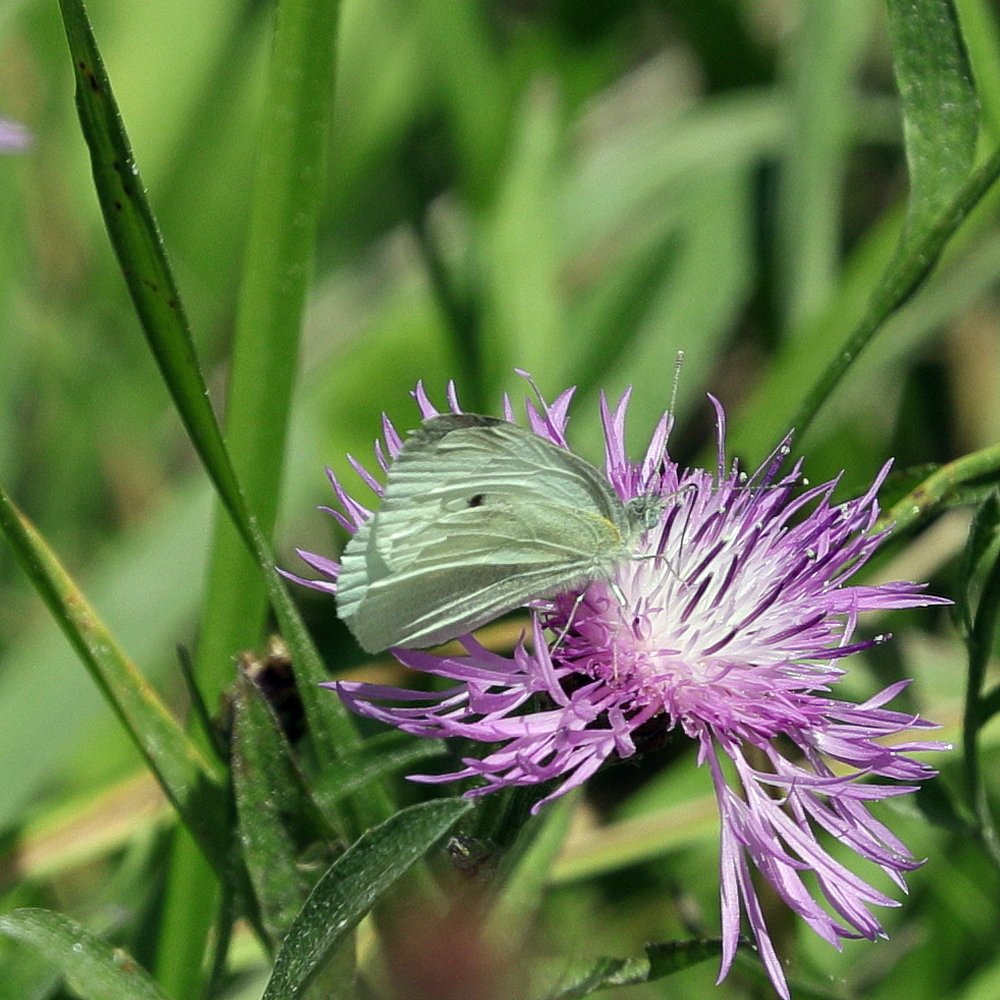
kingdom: Animalia
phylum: Arthropoda
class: Insecta
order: Lepidoptera
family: Pieridae
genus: Pieris
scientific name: Pieris rapae
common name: Cabbage White
